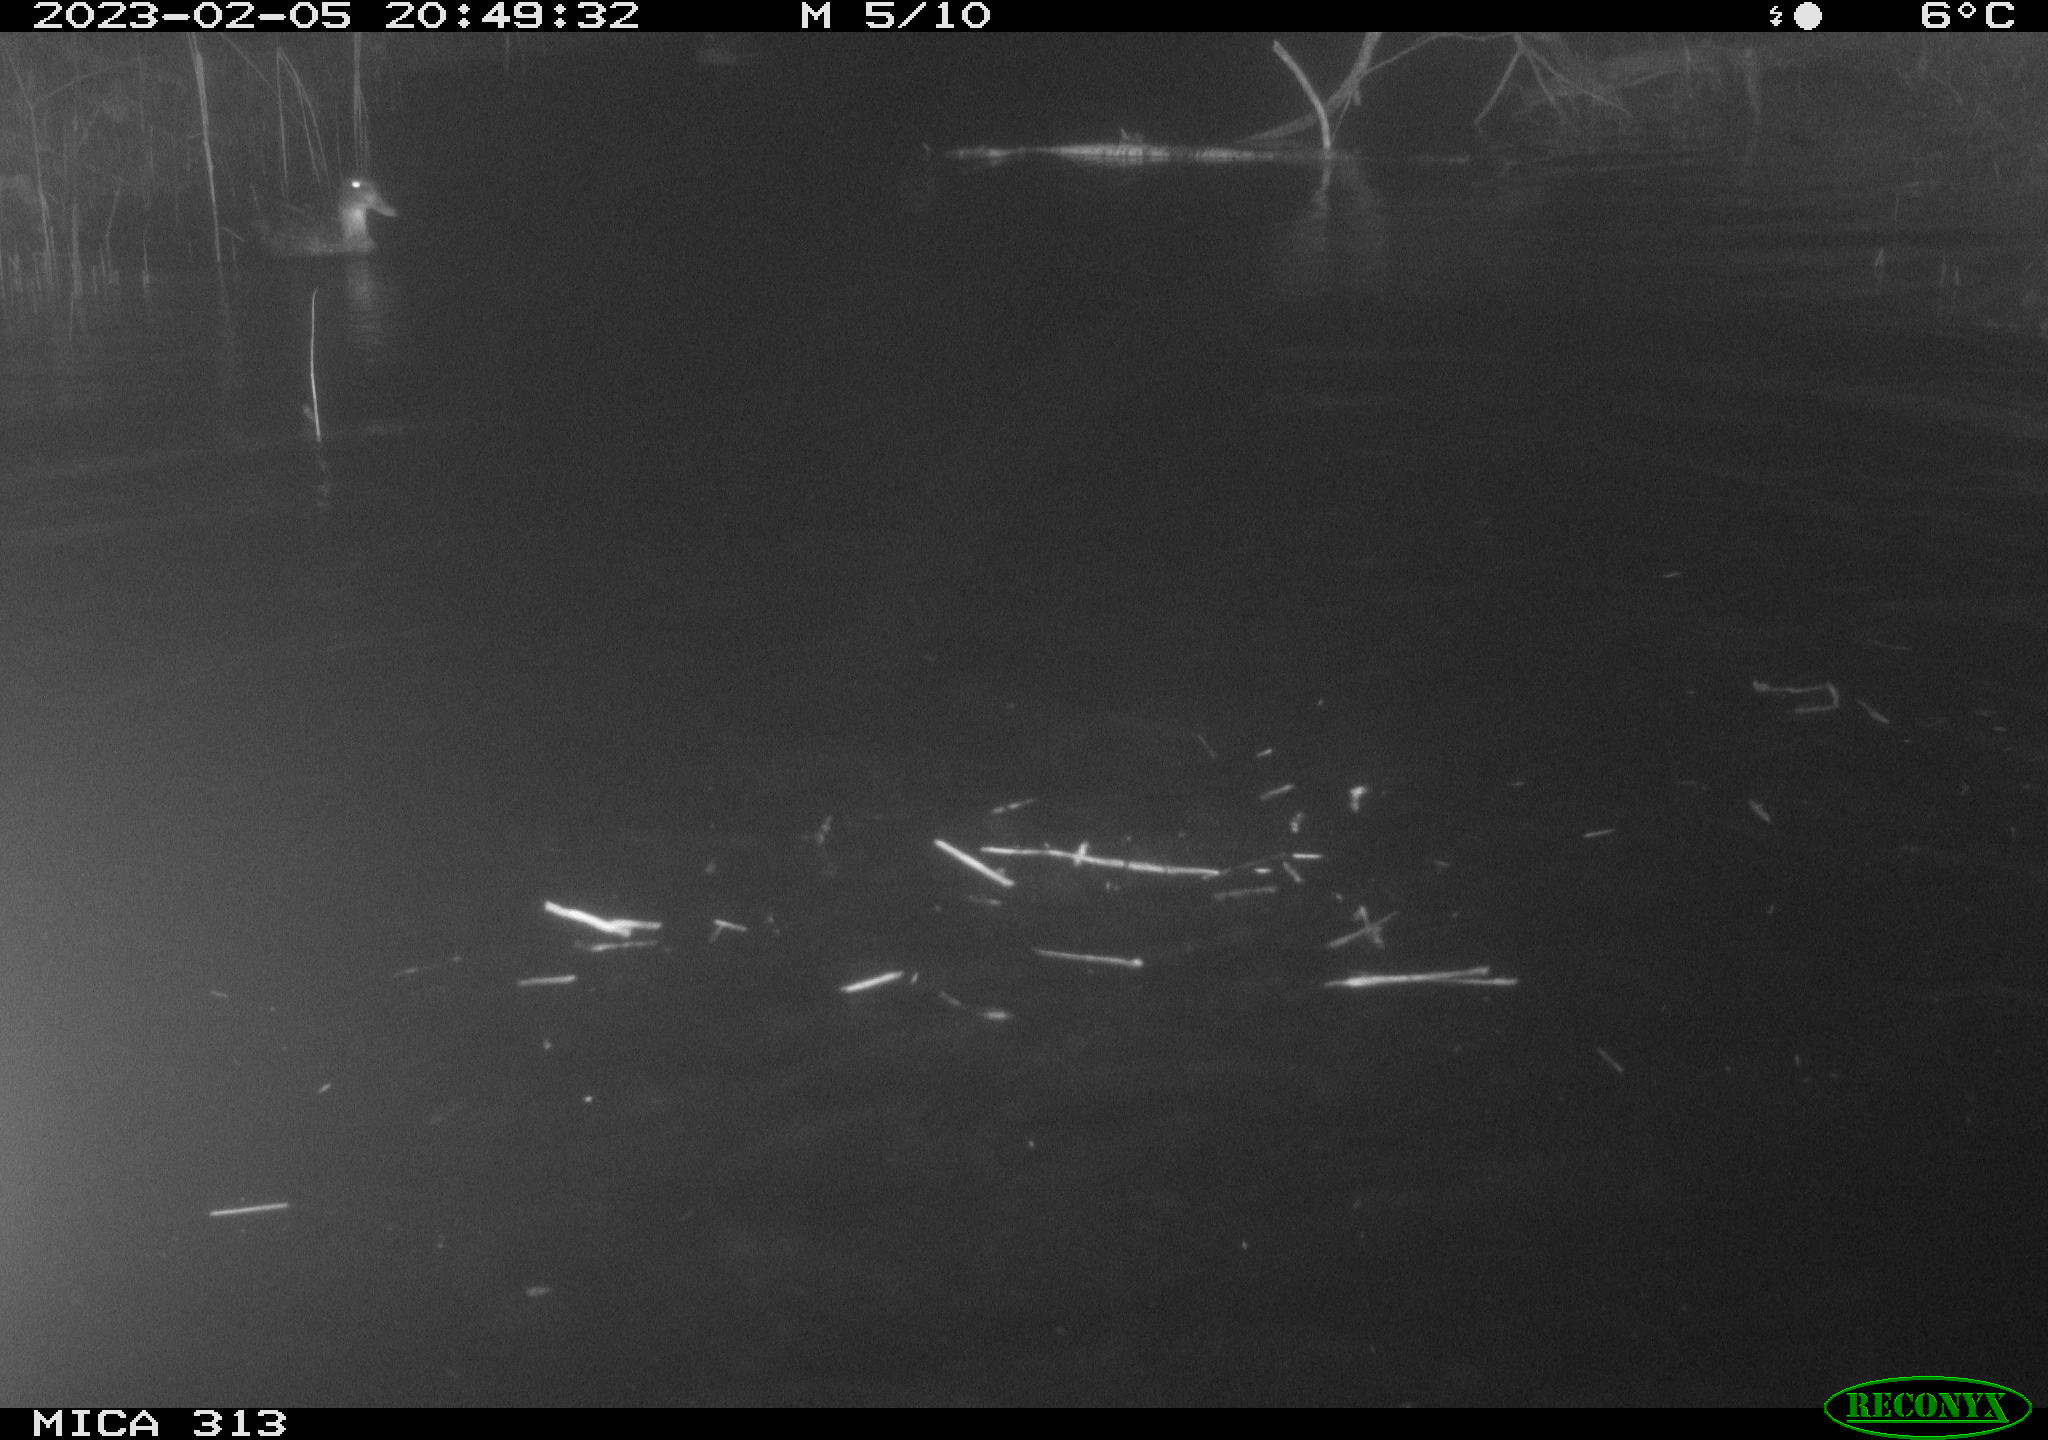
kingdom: Animalia
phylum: Chordata
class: Aves
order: Anseriformes
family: Anatidae
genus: Anas
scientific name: Anas
